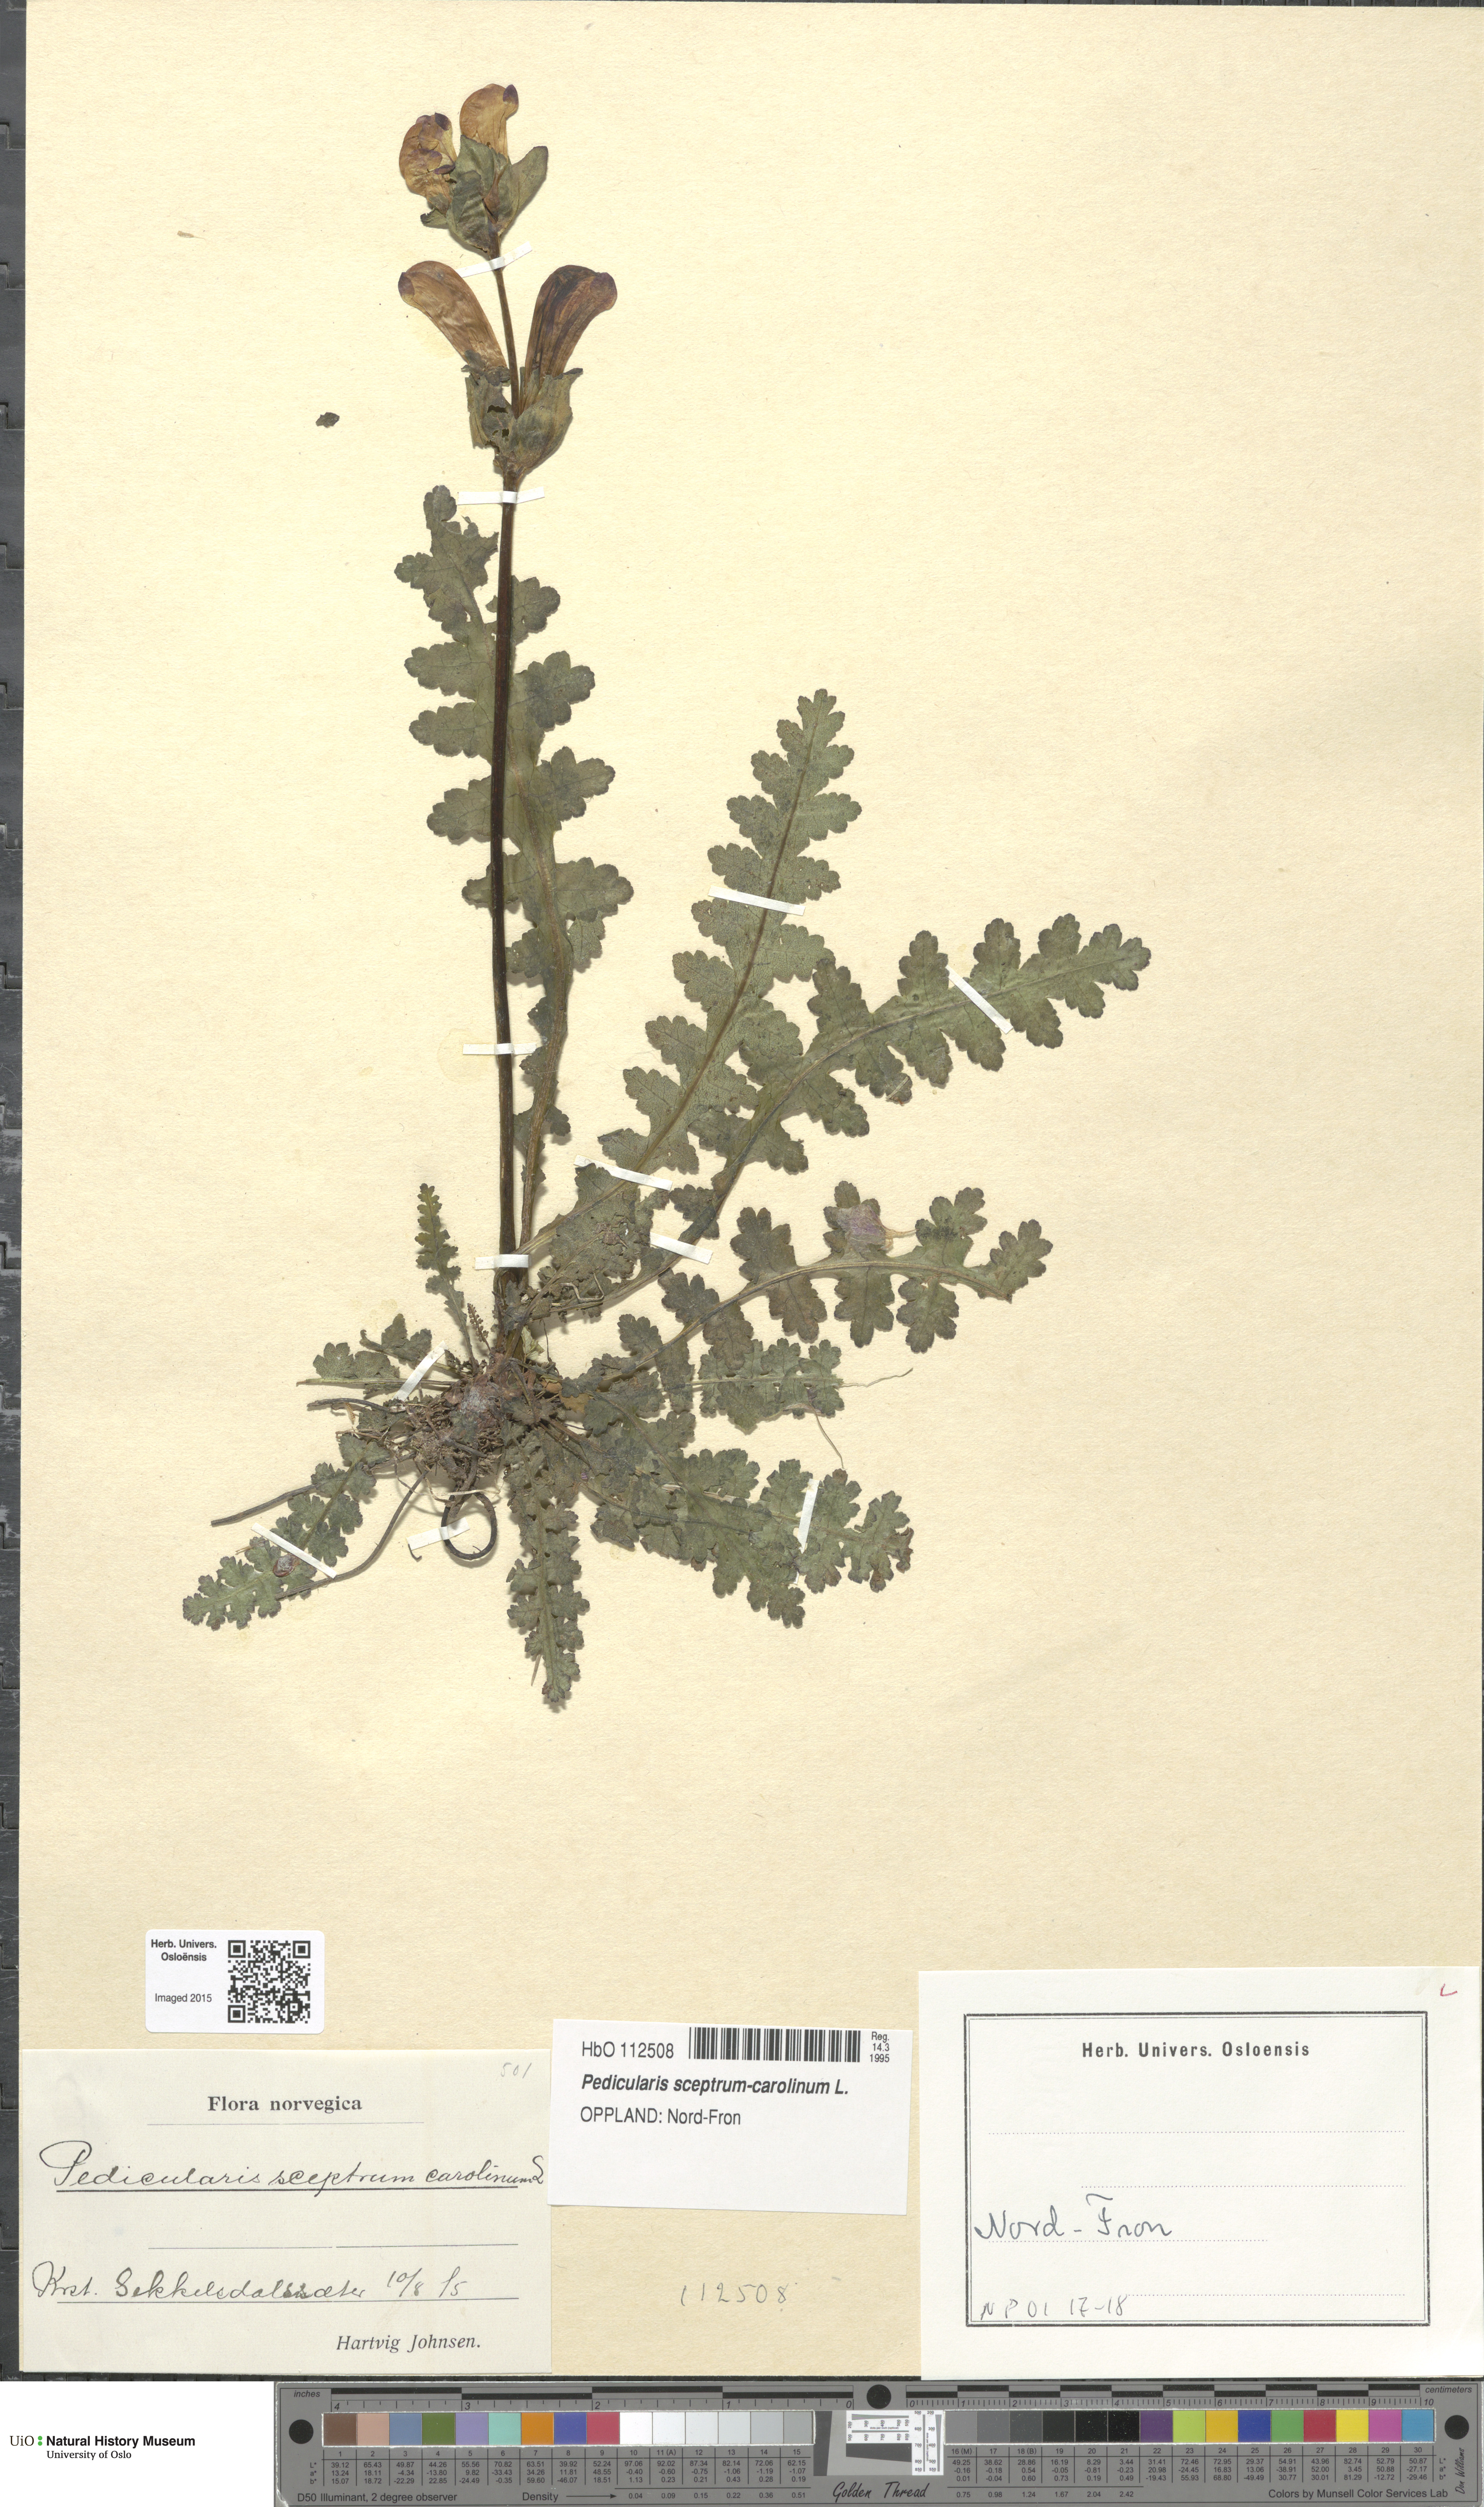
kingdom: Plantae
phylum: Tracheophyta
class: Magnoliopsida
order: Lamiales
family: Orobanchaceae
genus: Pedicularis
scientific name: Pedicularis sceptrum-carolinum
